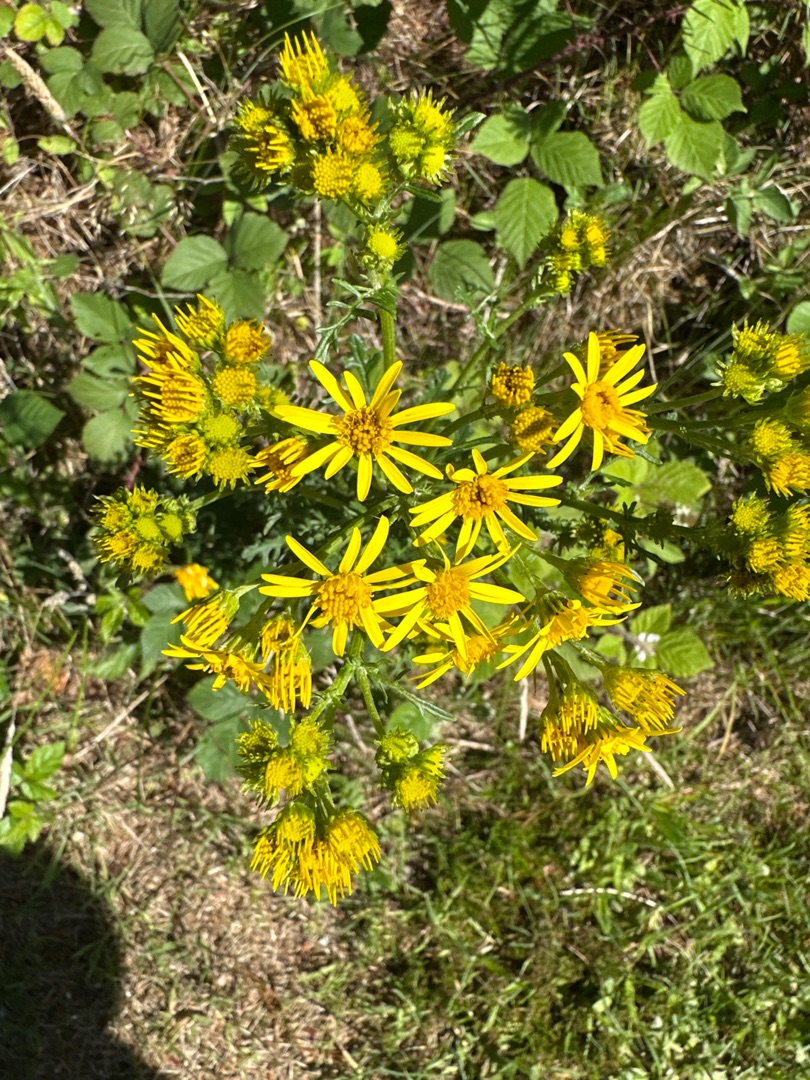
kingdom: Plantae
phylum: Tracheophyta
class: Magnoliopsida
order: Asterales
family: Asteraceae
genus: Jacobaea
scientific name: Jacobaea vulgaris
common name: Eng-brandbæger
